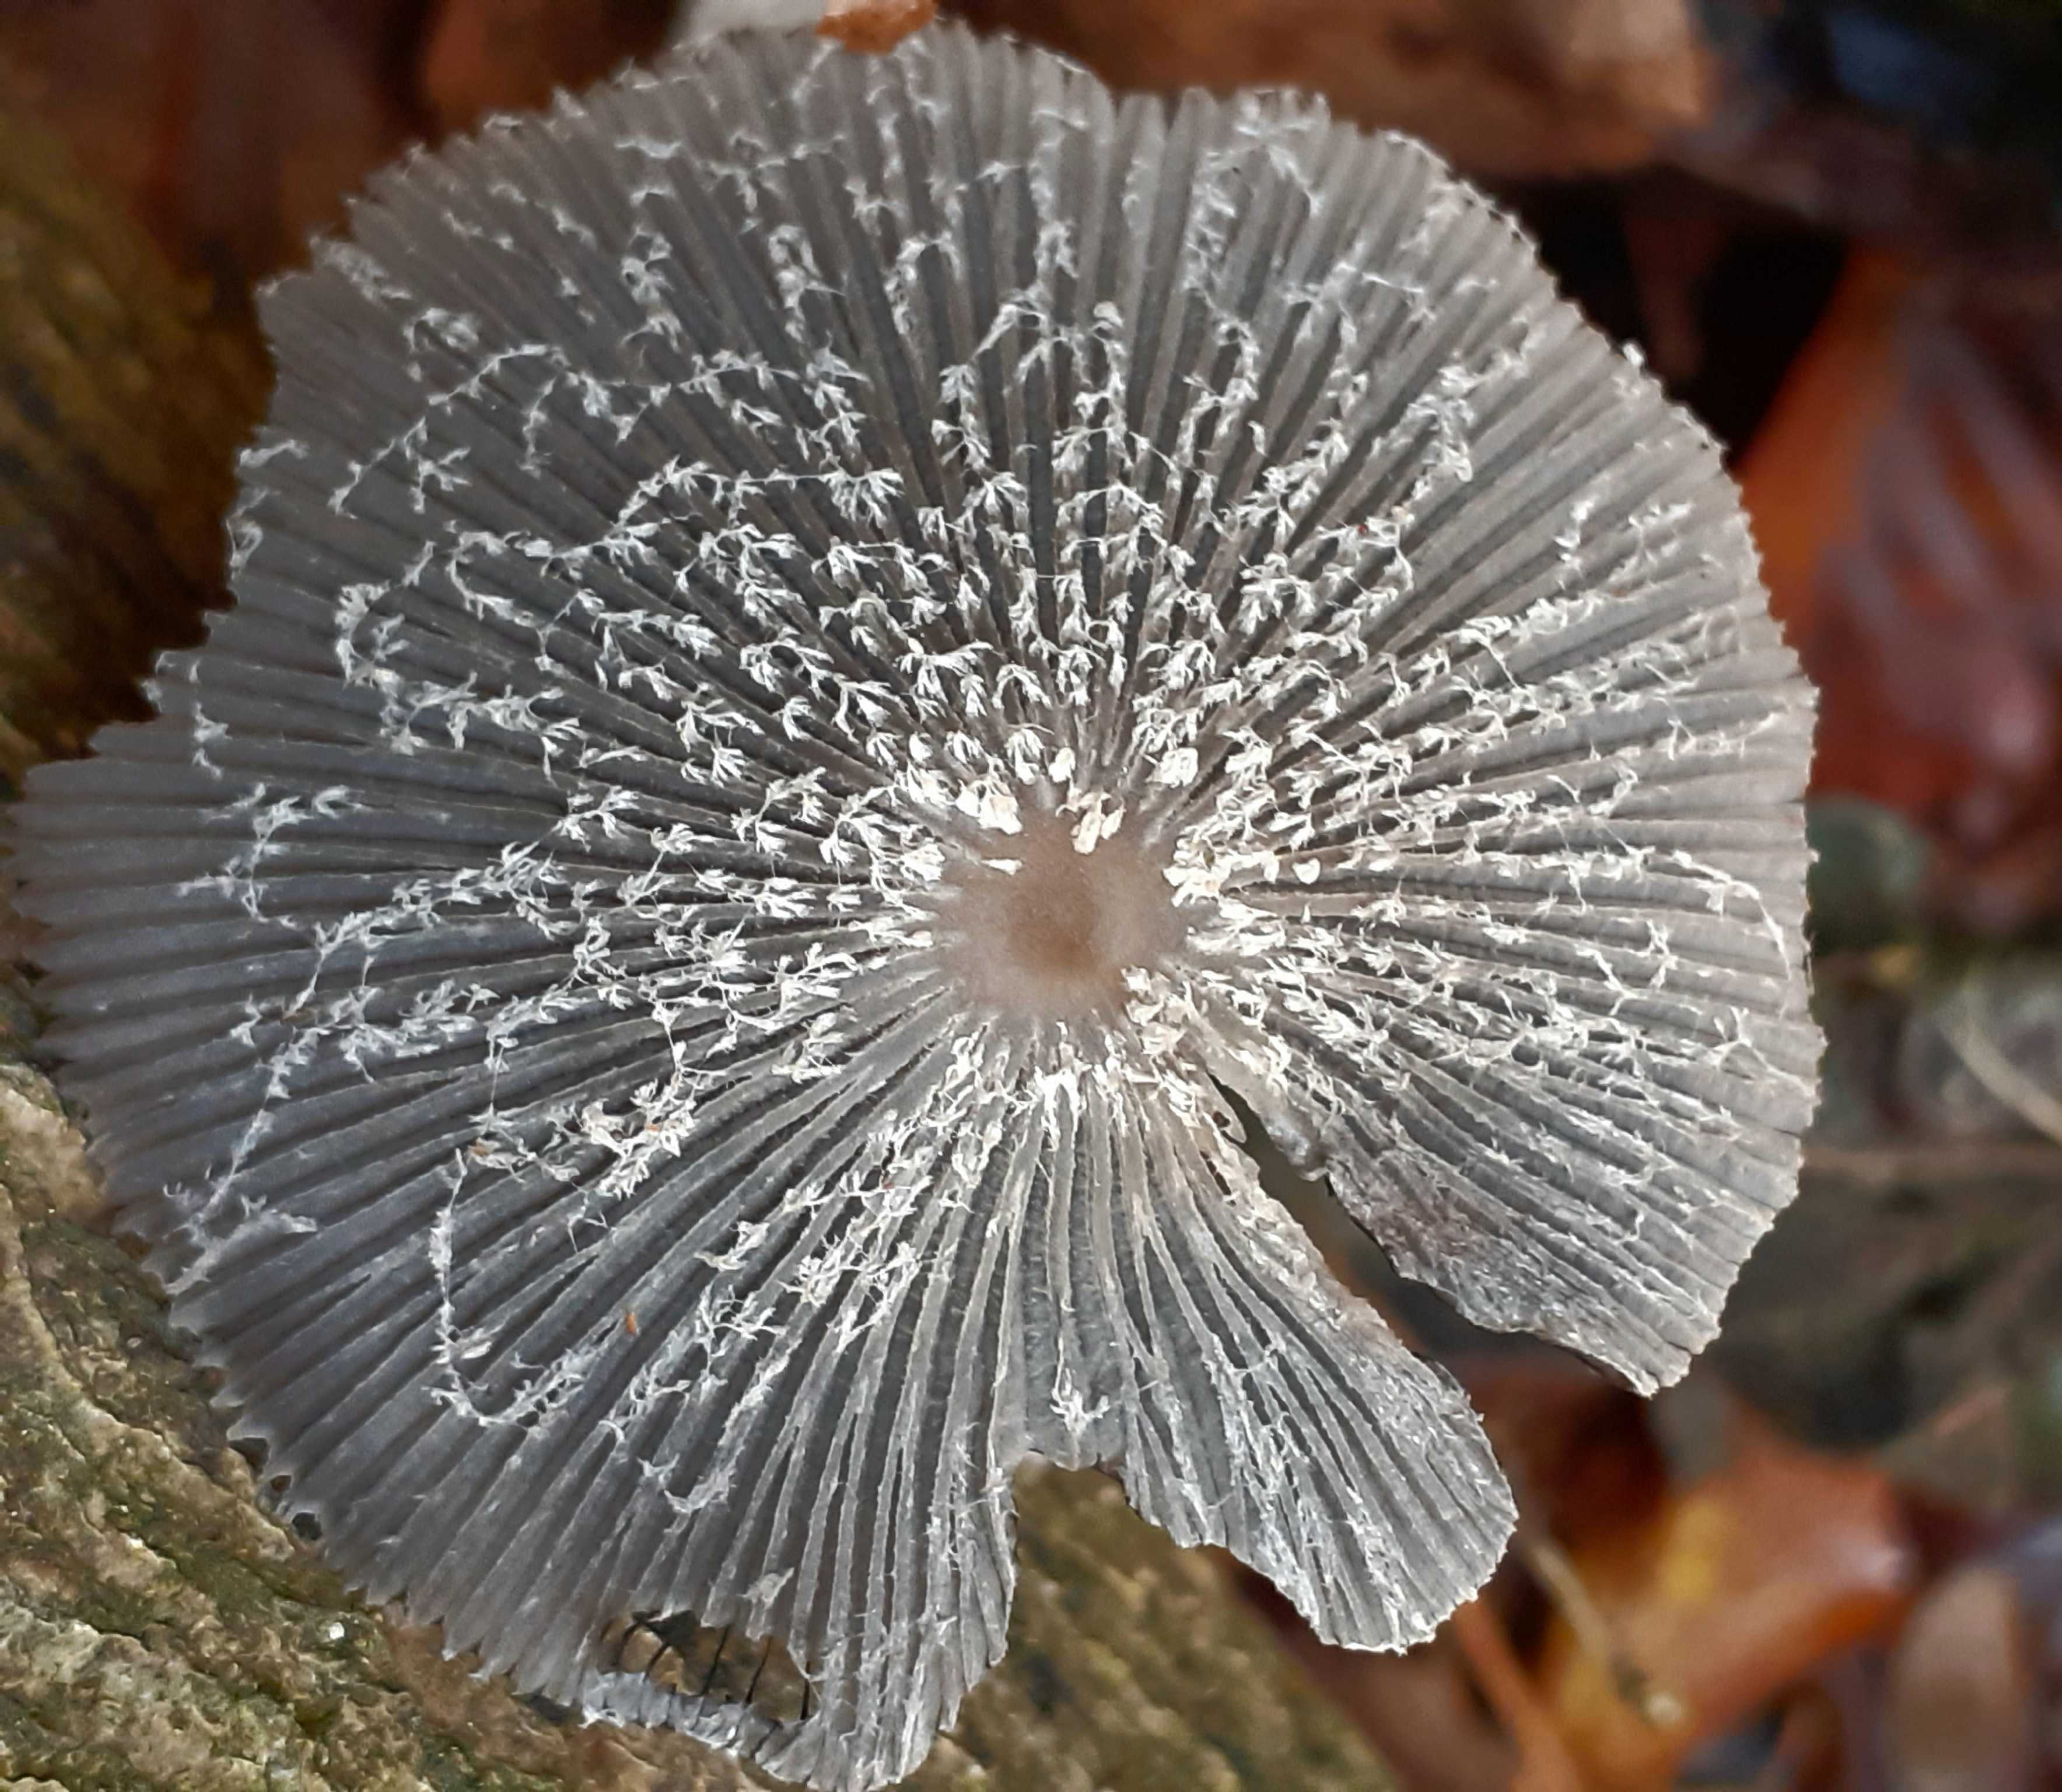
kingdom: Fungi
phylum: Basidiomycota
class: Agaricomycetes
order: Agaricales
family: Psathyrellaceae
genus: Coprinopsis
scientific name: Coprinopsis lagopus
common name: dunstokket blækhat
